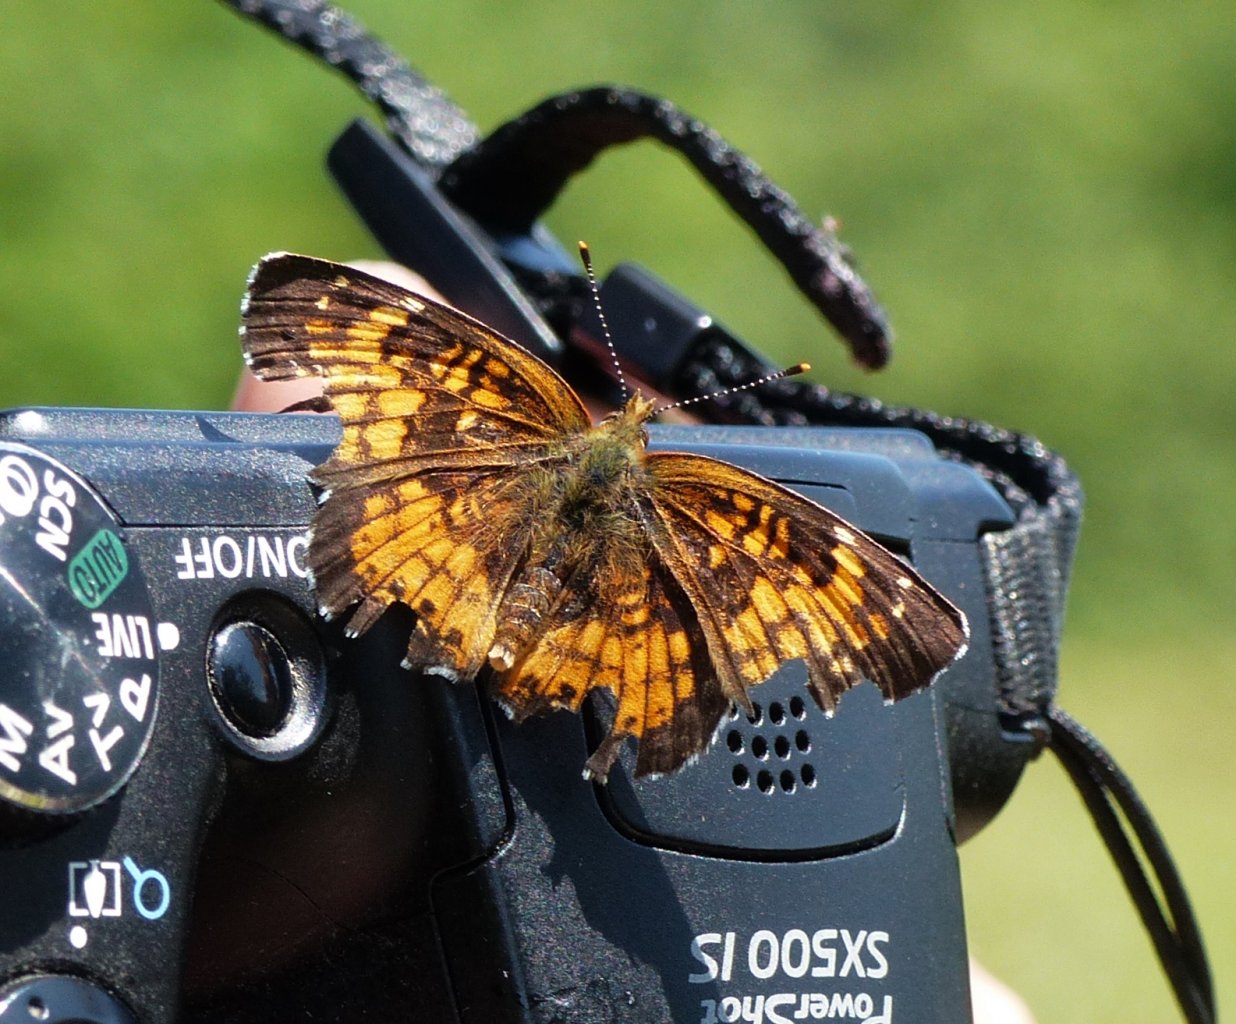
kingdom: Animalia
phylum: Arthropoda
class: Insecta
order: Lepidoptera
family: Nymphalidae
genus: Chlosyne
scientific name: Chlosyne harrisii
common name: Harris's Checkerspot
